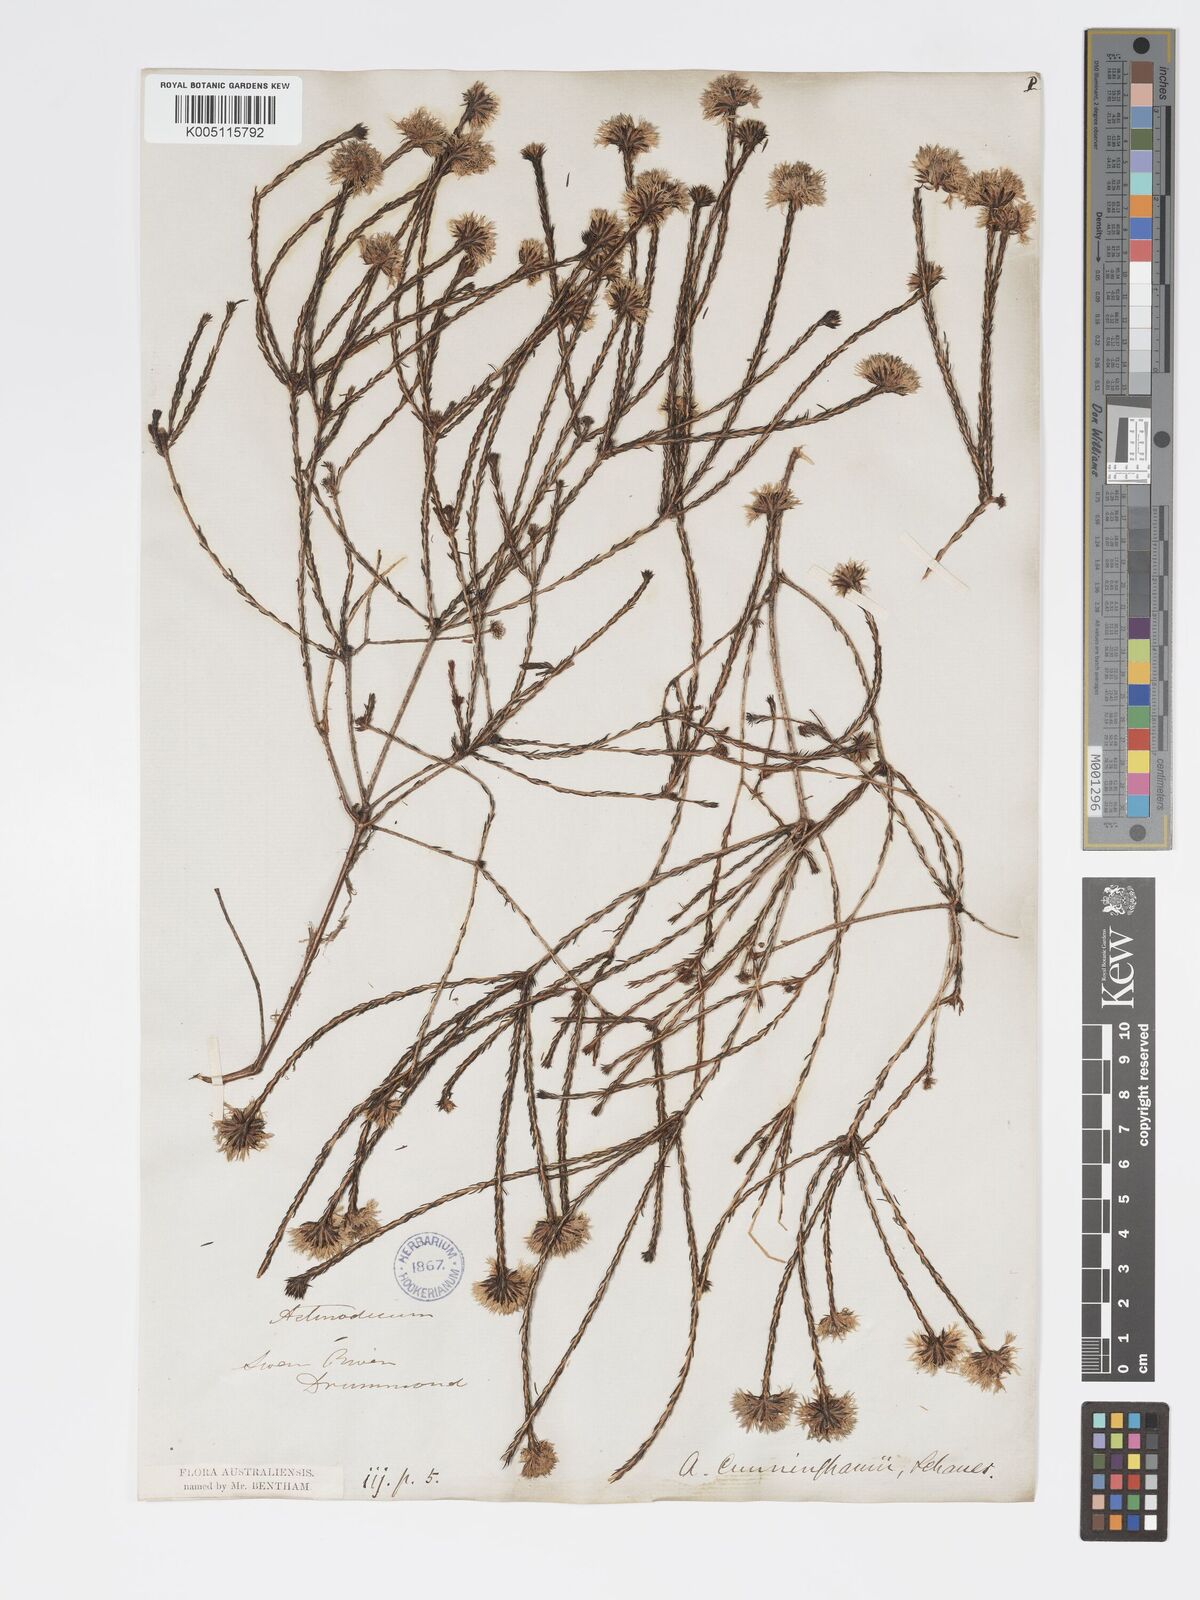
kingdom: Plantae
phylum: Tracheophyta
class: Magnoliopsida
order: Myrtales
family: Myrtaceae
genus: Actinodium
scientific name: Actinodium cunninghamii
